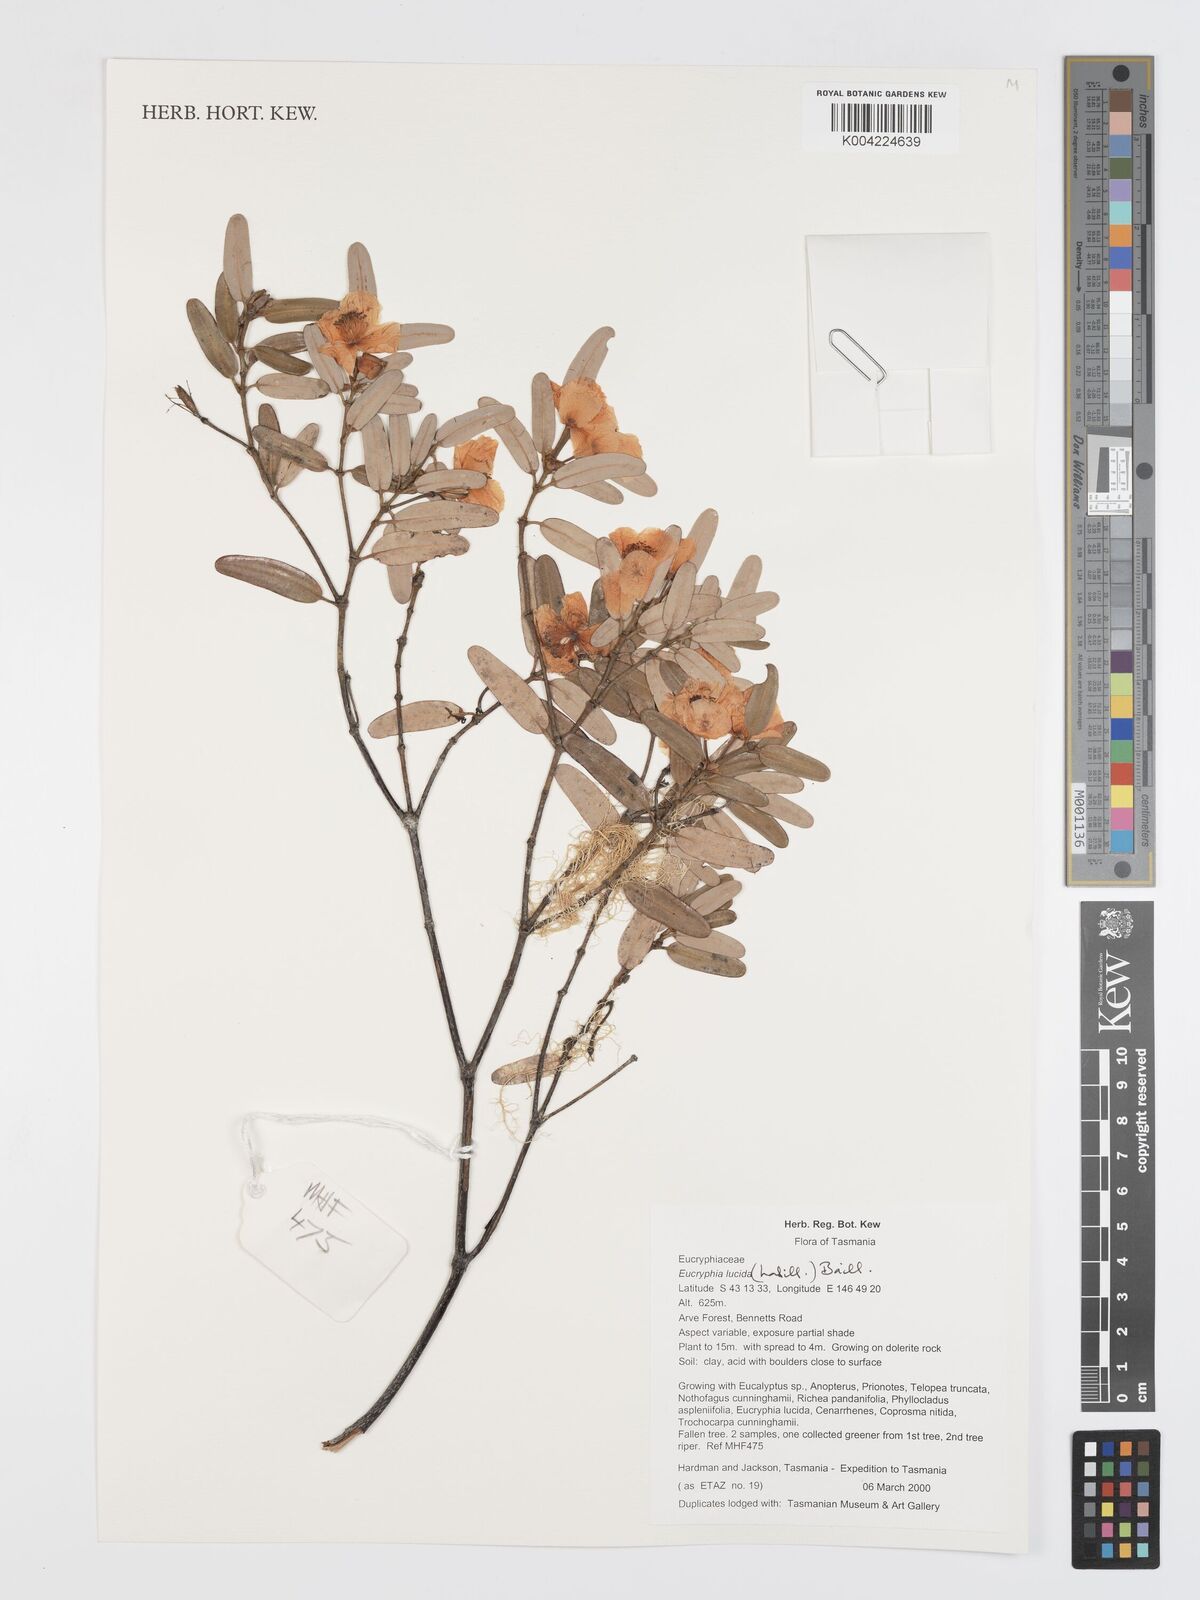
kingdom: Plantae
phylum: Tracheophyta
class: Magnoliopsida
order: Oxalidales
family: Cunoniaceae
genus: Eucryphia
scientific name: Eucryphia lucida
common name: Leatherwood
